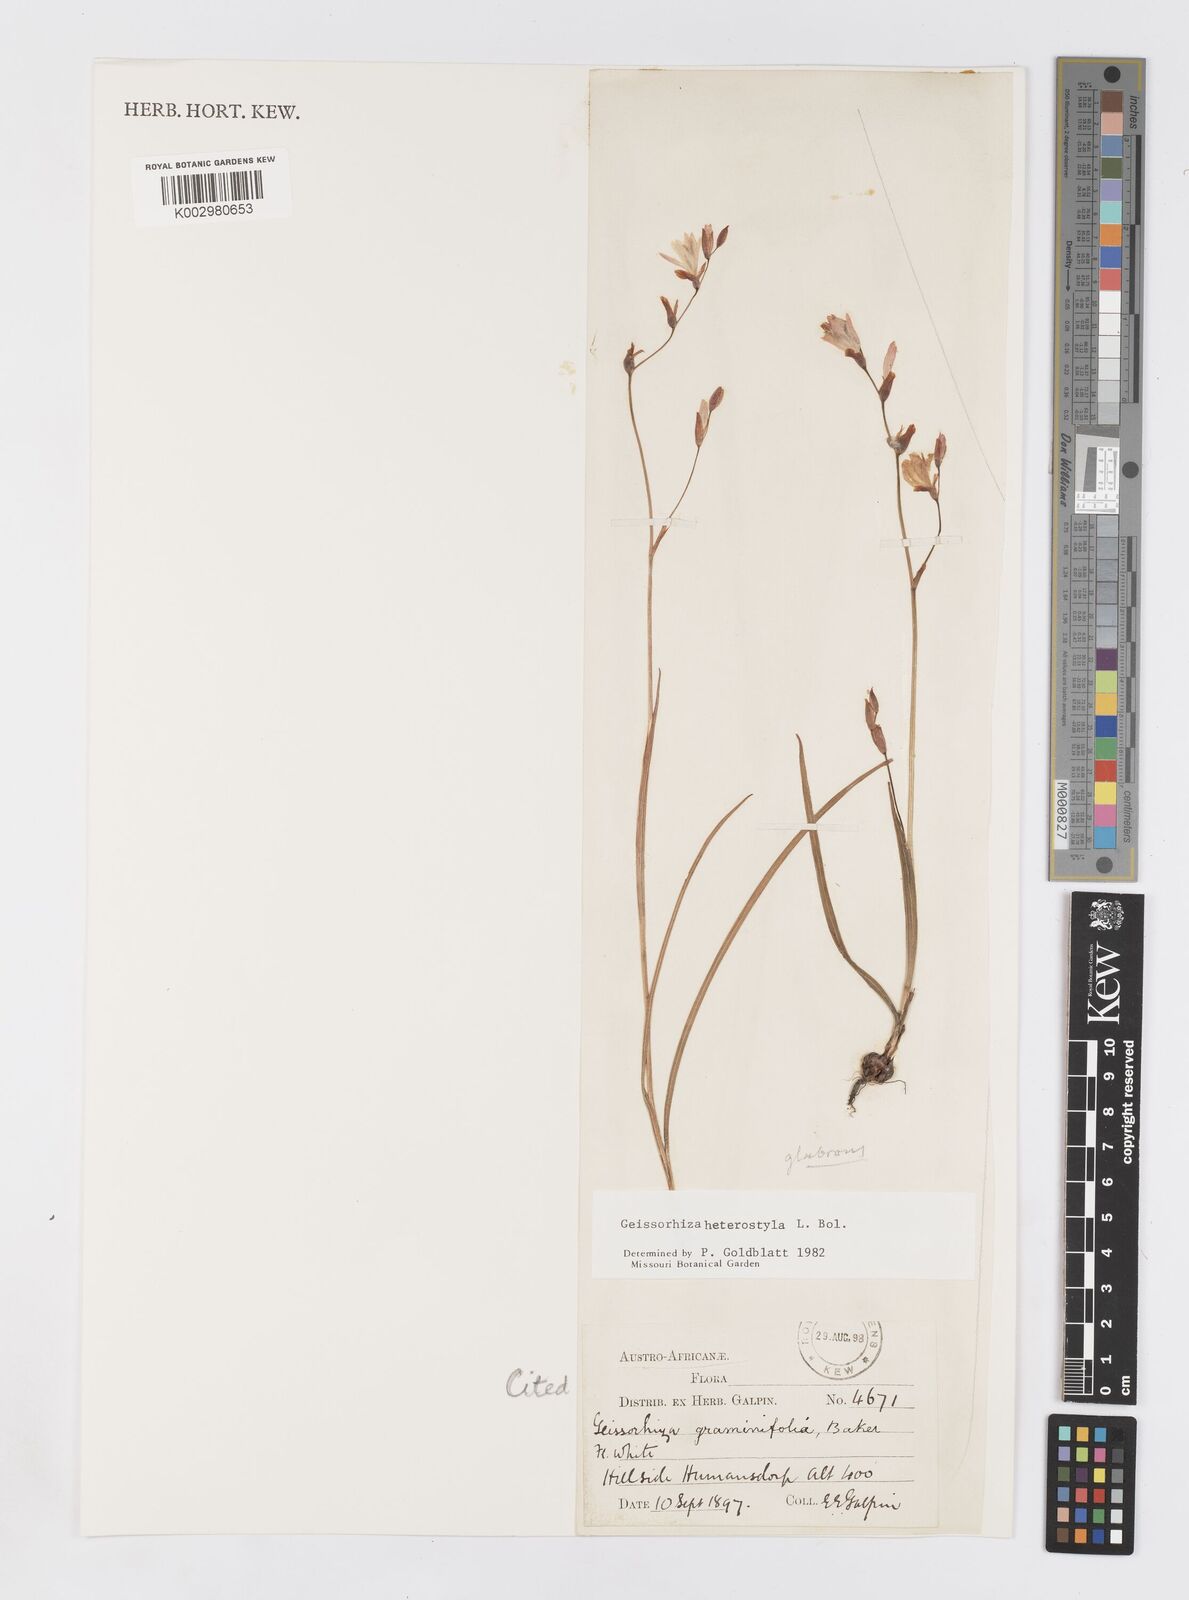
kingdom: Plantae
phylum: Tracheophyta
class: Liliopsida
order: Asparagales
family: Iridaceae
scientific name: Iridaceae
